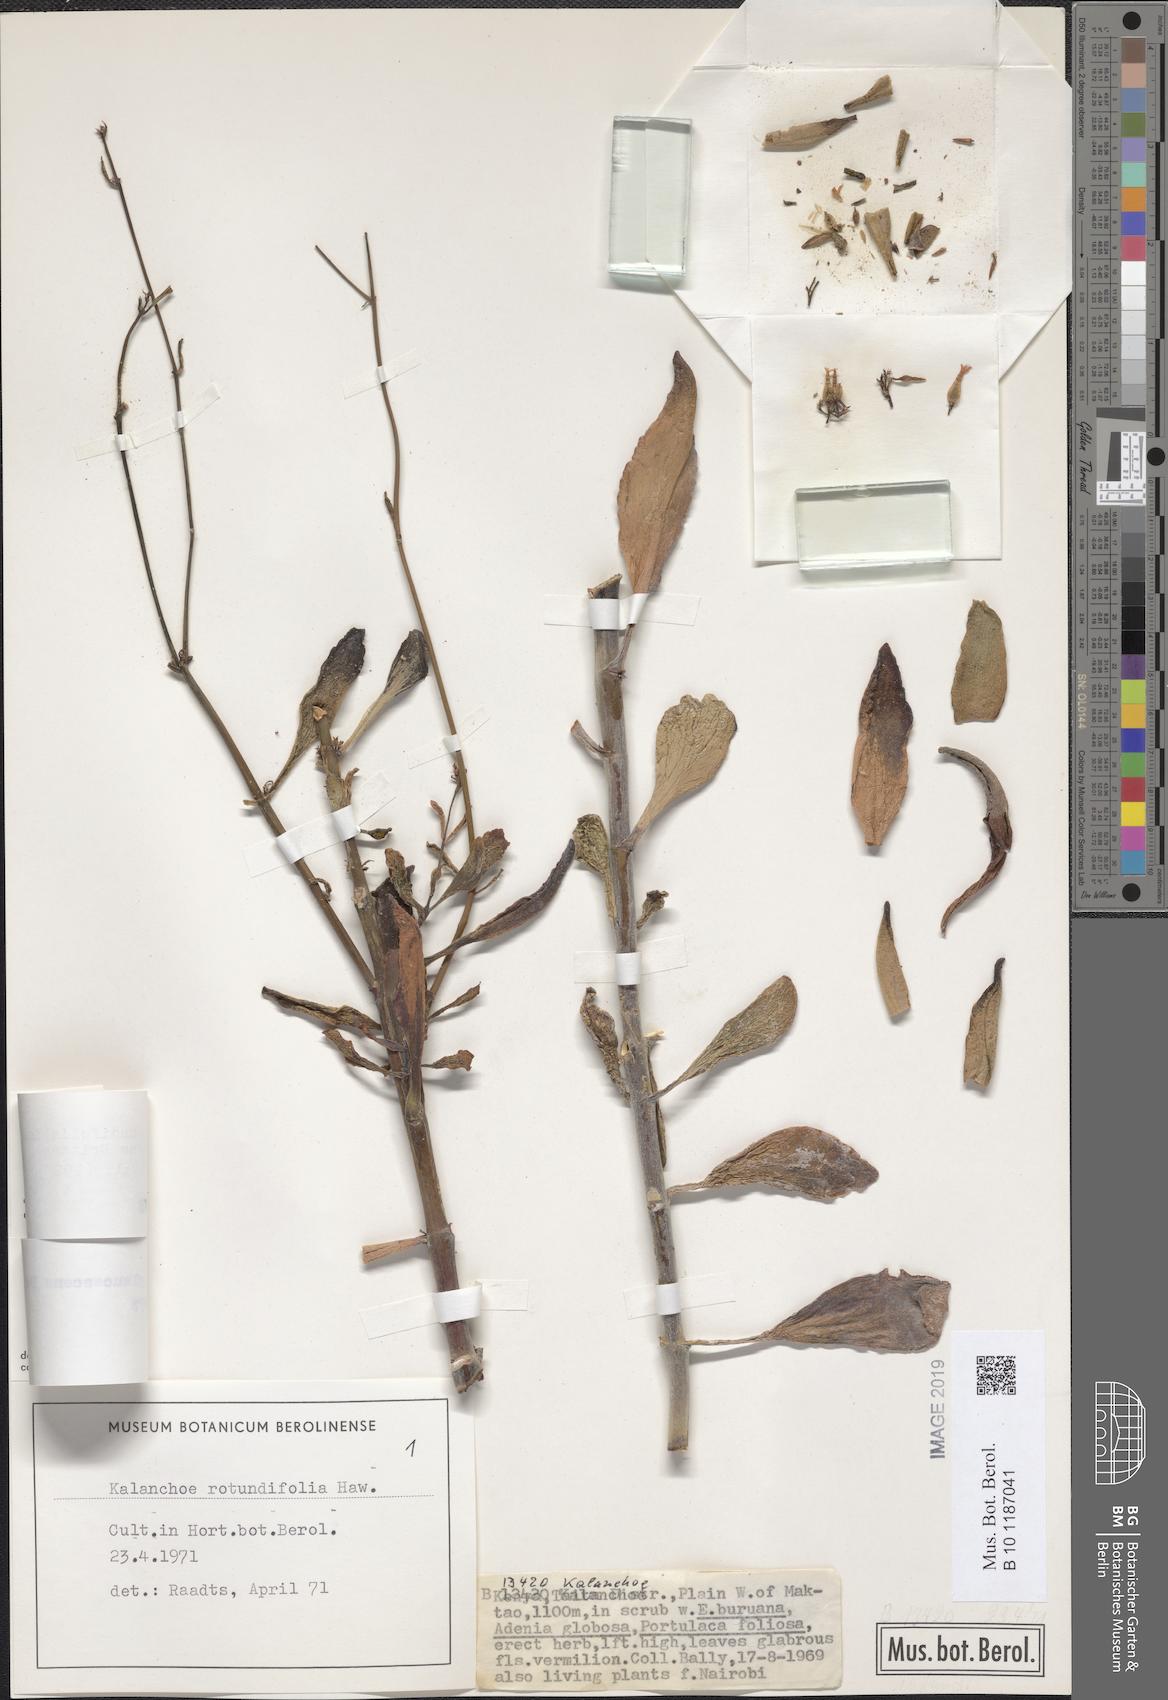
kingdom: Plantae
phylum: Tracheophyta
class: Magnoliopsida
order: Saxifragales
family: Crassulaceae
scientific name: Crassulaceae
